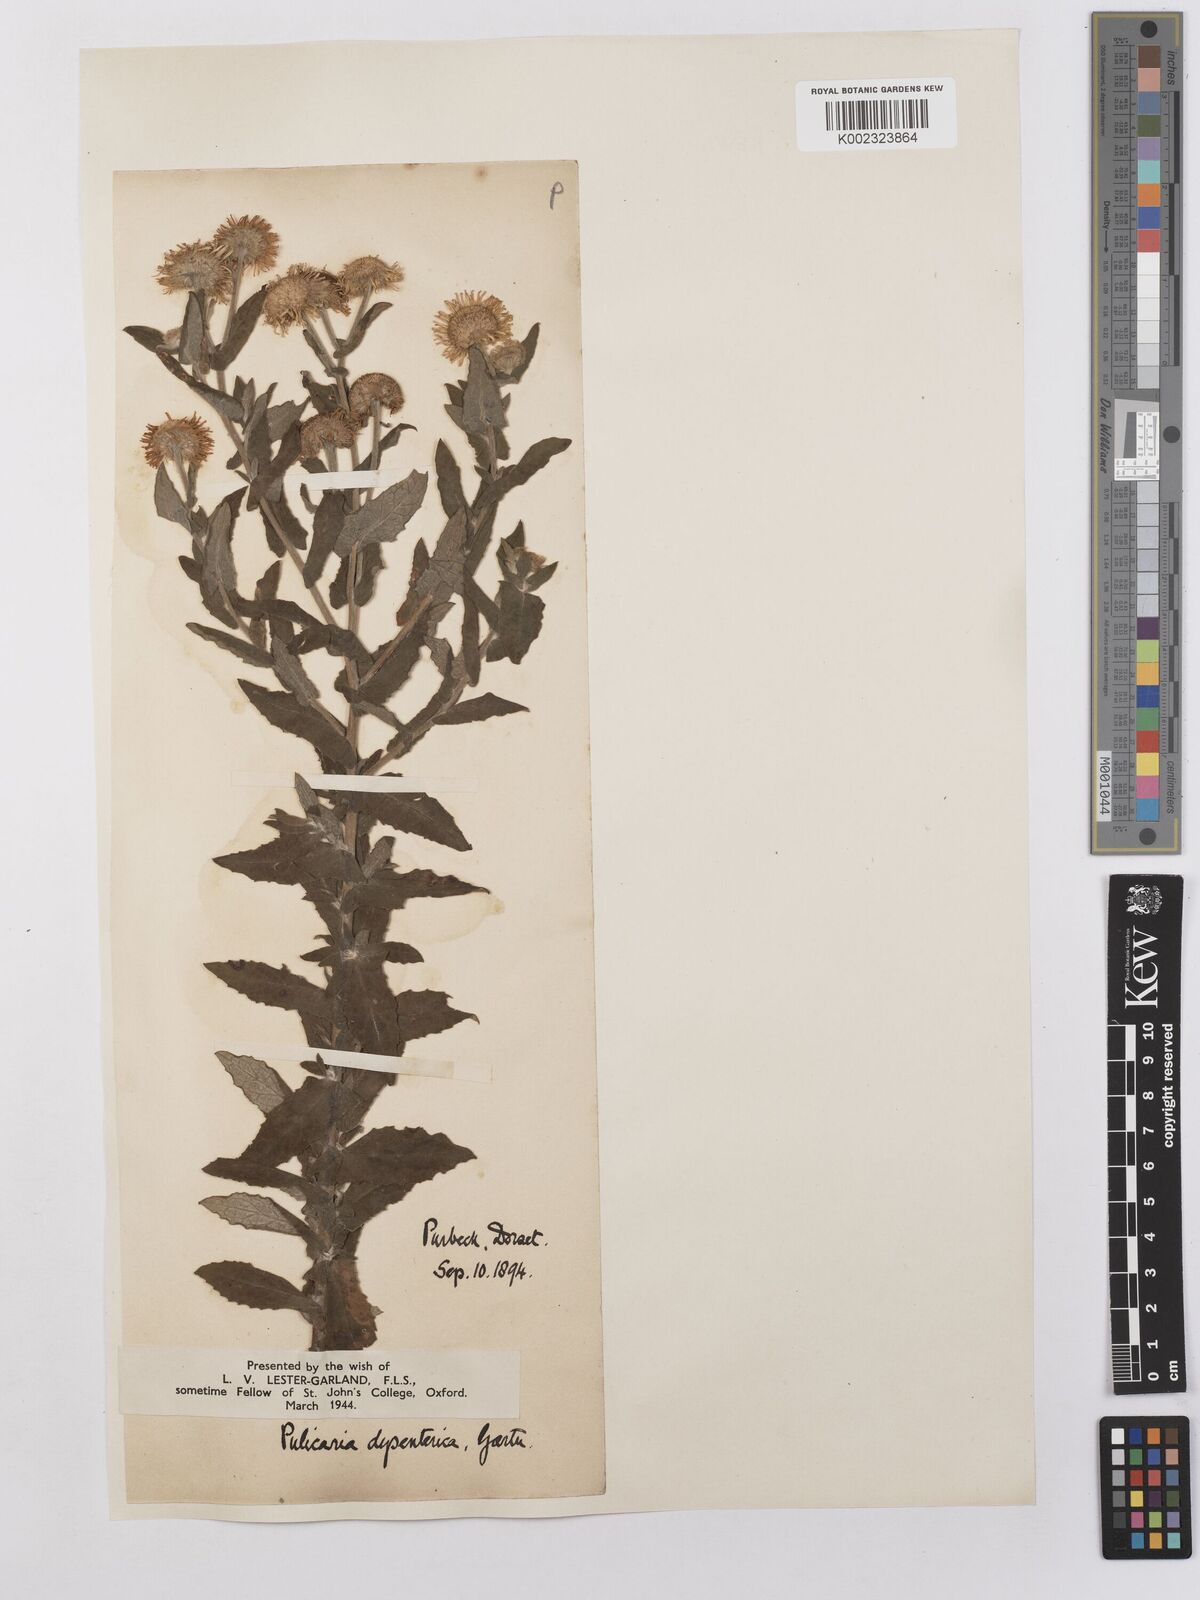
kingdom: Plantae
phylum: Tracheophyta
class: Magnoliopsida
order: Asterales
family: Asteraceae
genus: Pulicaria
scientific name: Pulicaria dysenterica
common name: Common fleabane
